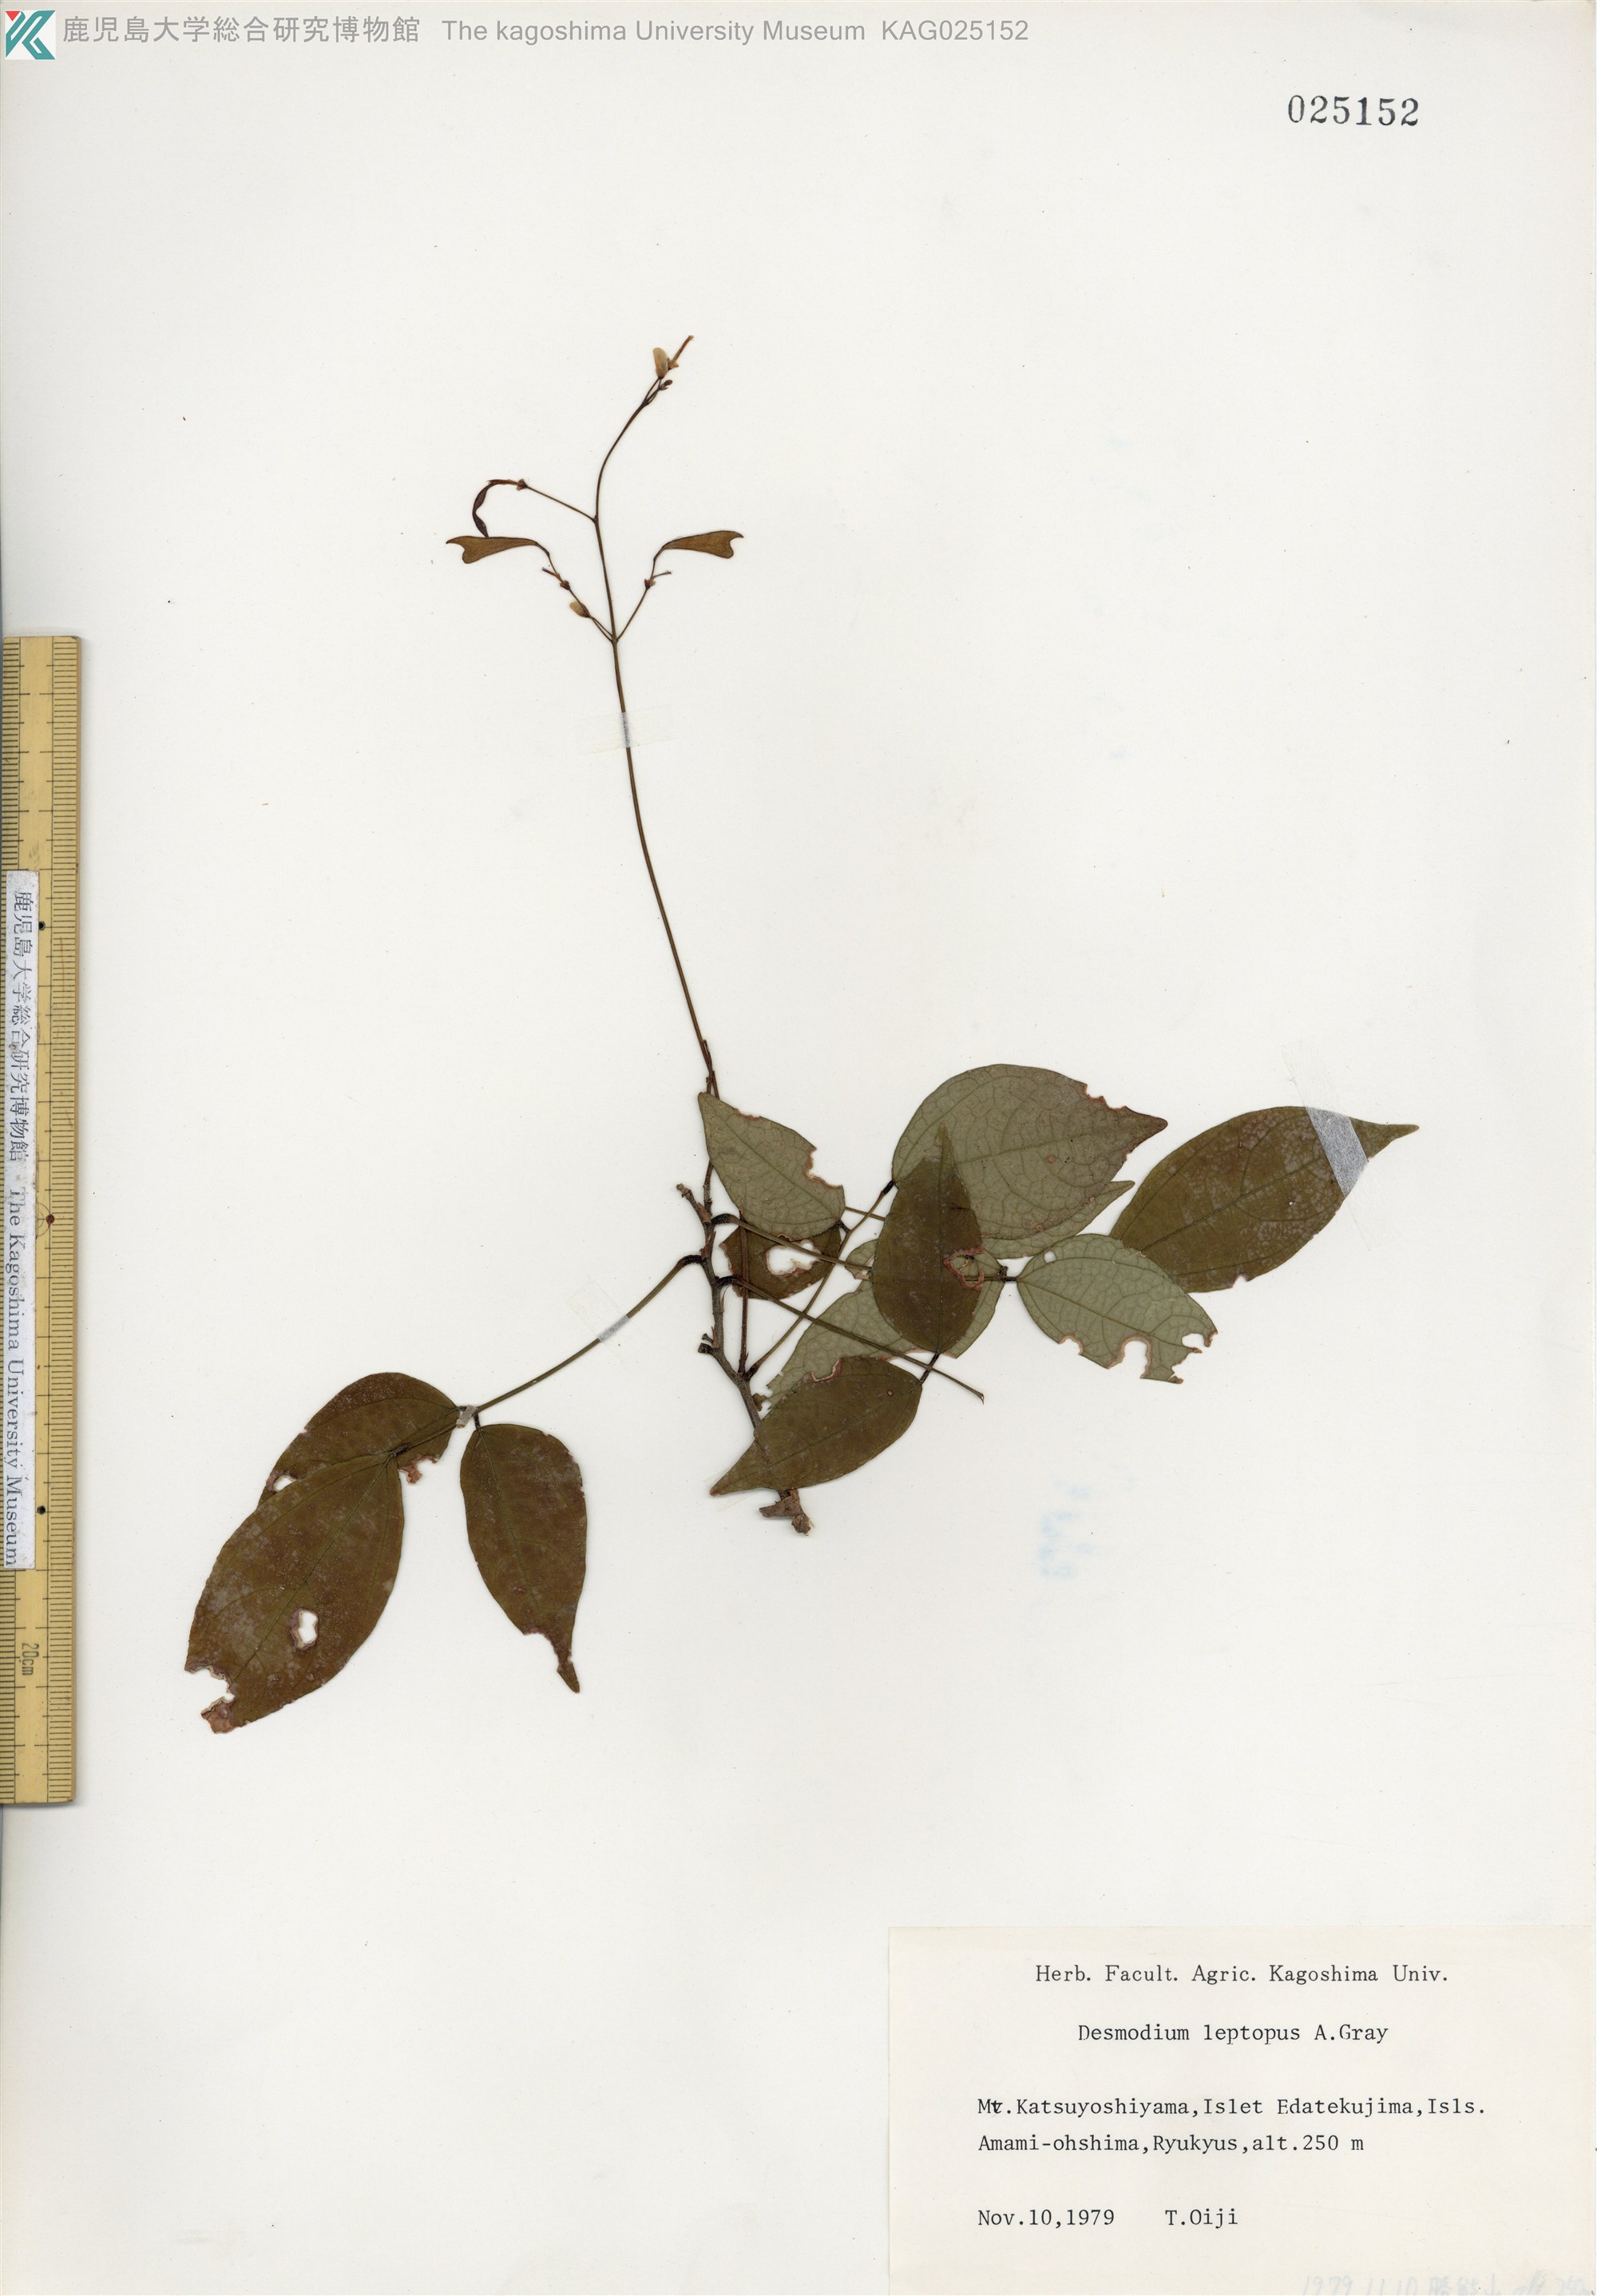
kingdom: Plantae
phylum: Tracheophyta
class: Magnoliopsida
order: Fabales
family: Fabaceae
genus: Hylodesmum
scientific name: Hylodesmum leptopus
